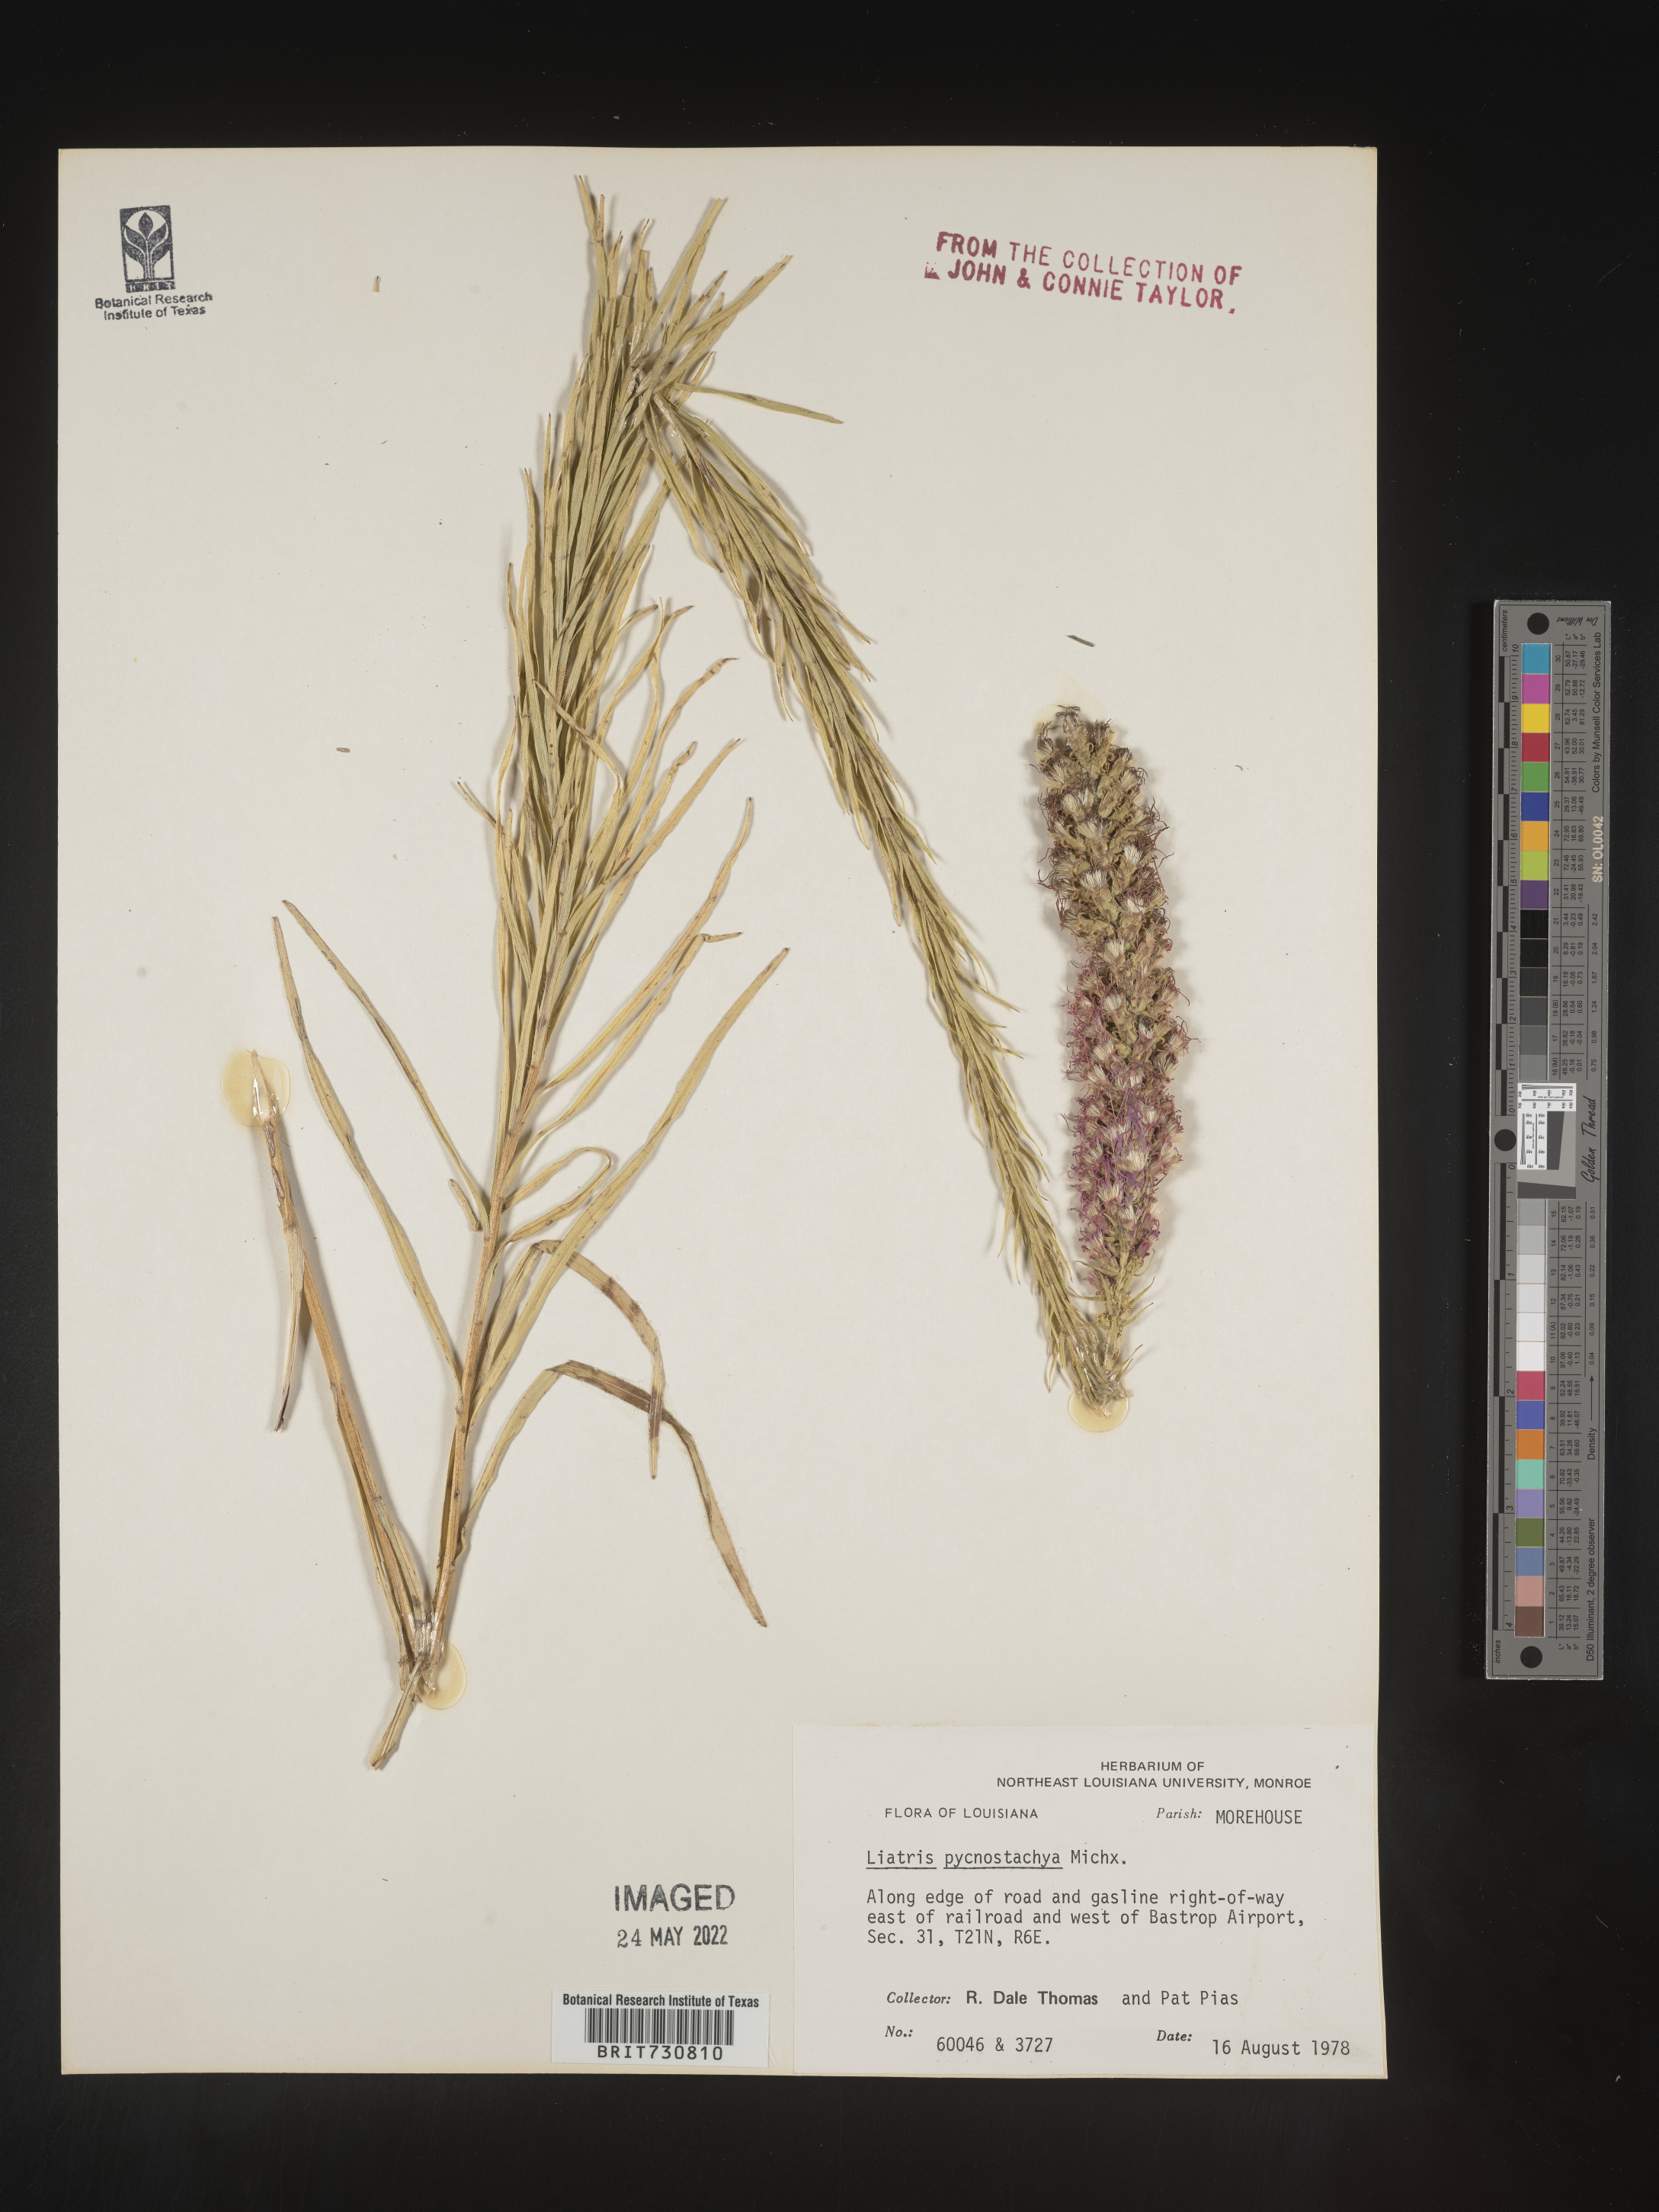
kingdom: Plantae
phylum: Tracheophyta
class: Magnoliopsida
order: Asterales
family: Asteraceae
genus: Liatris
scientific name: Liatris pycnostachya
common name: Cattail gayfeather
